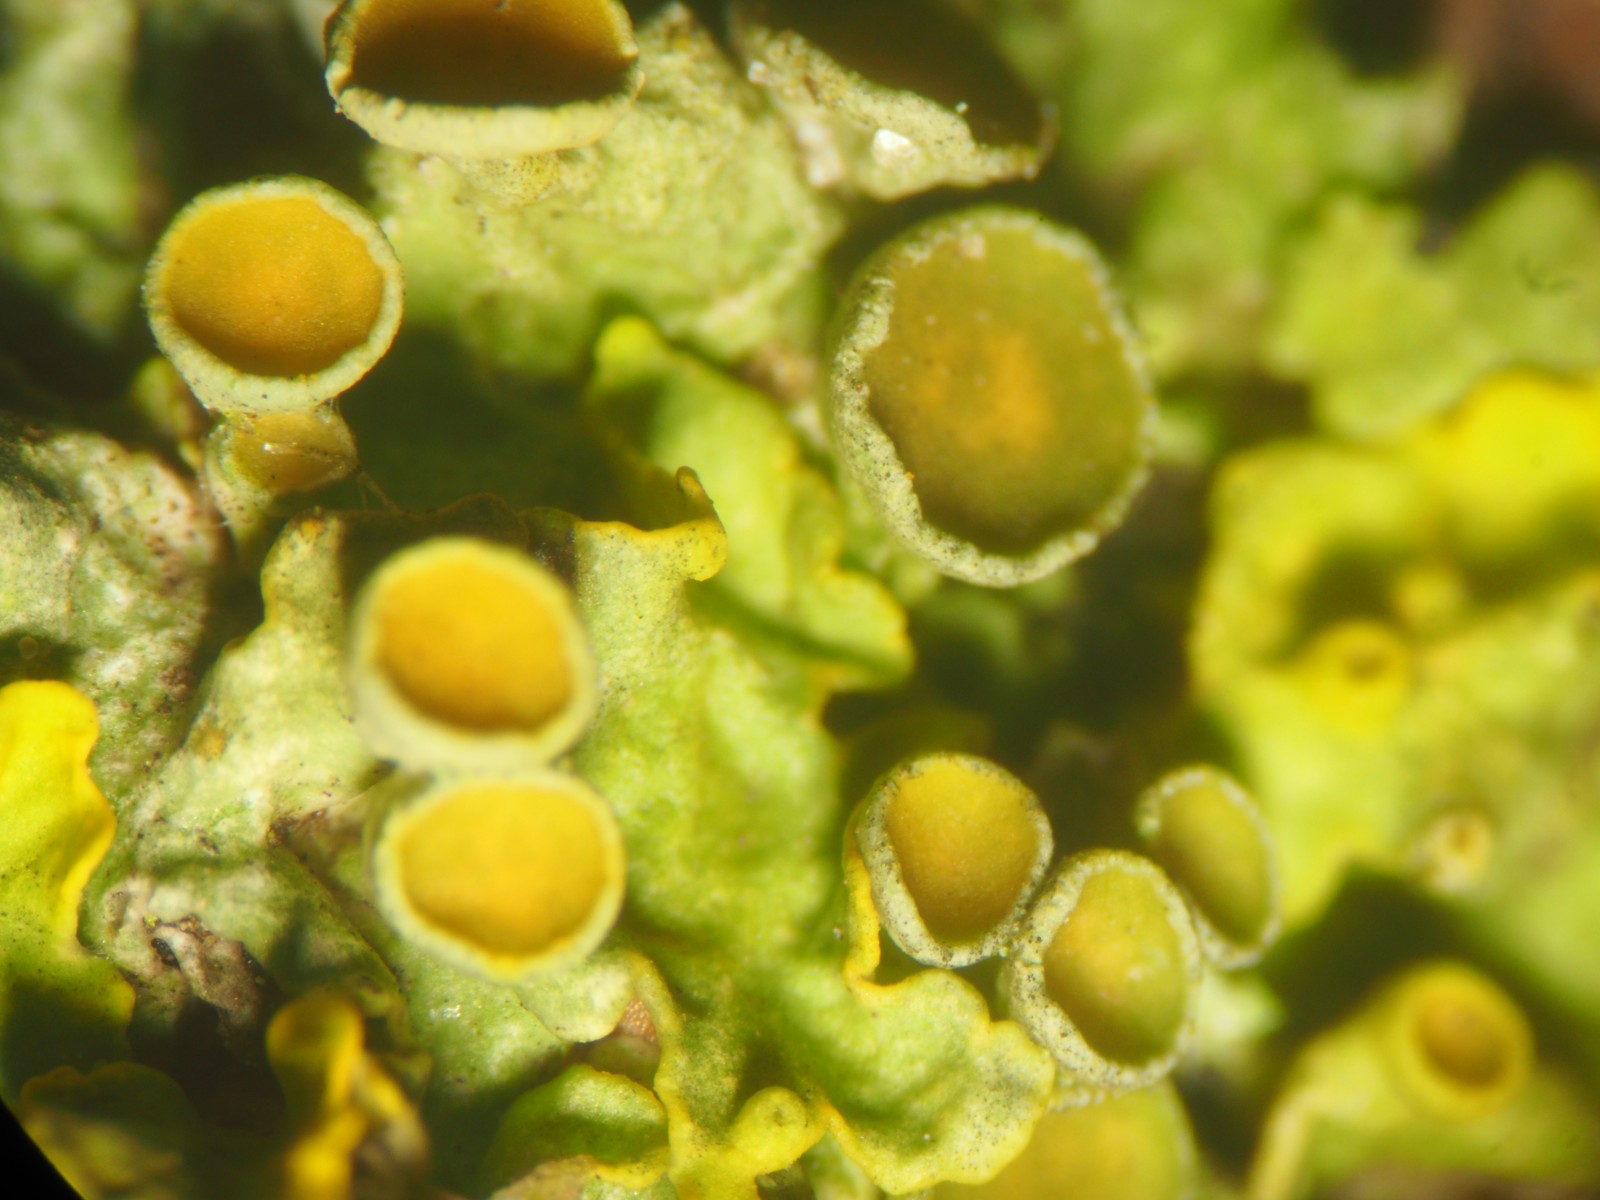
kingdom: Fungi
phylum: Ascomycota
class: Lecanoromycetes
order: Teloschistales
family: Teloschistaceae
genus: Xanthoria
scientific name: Xanthoria parietina
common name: almindelig væggelav
